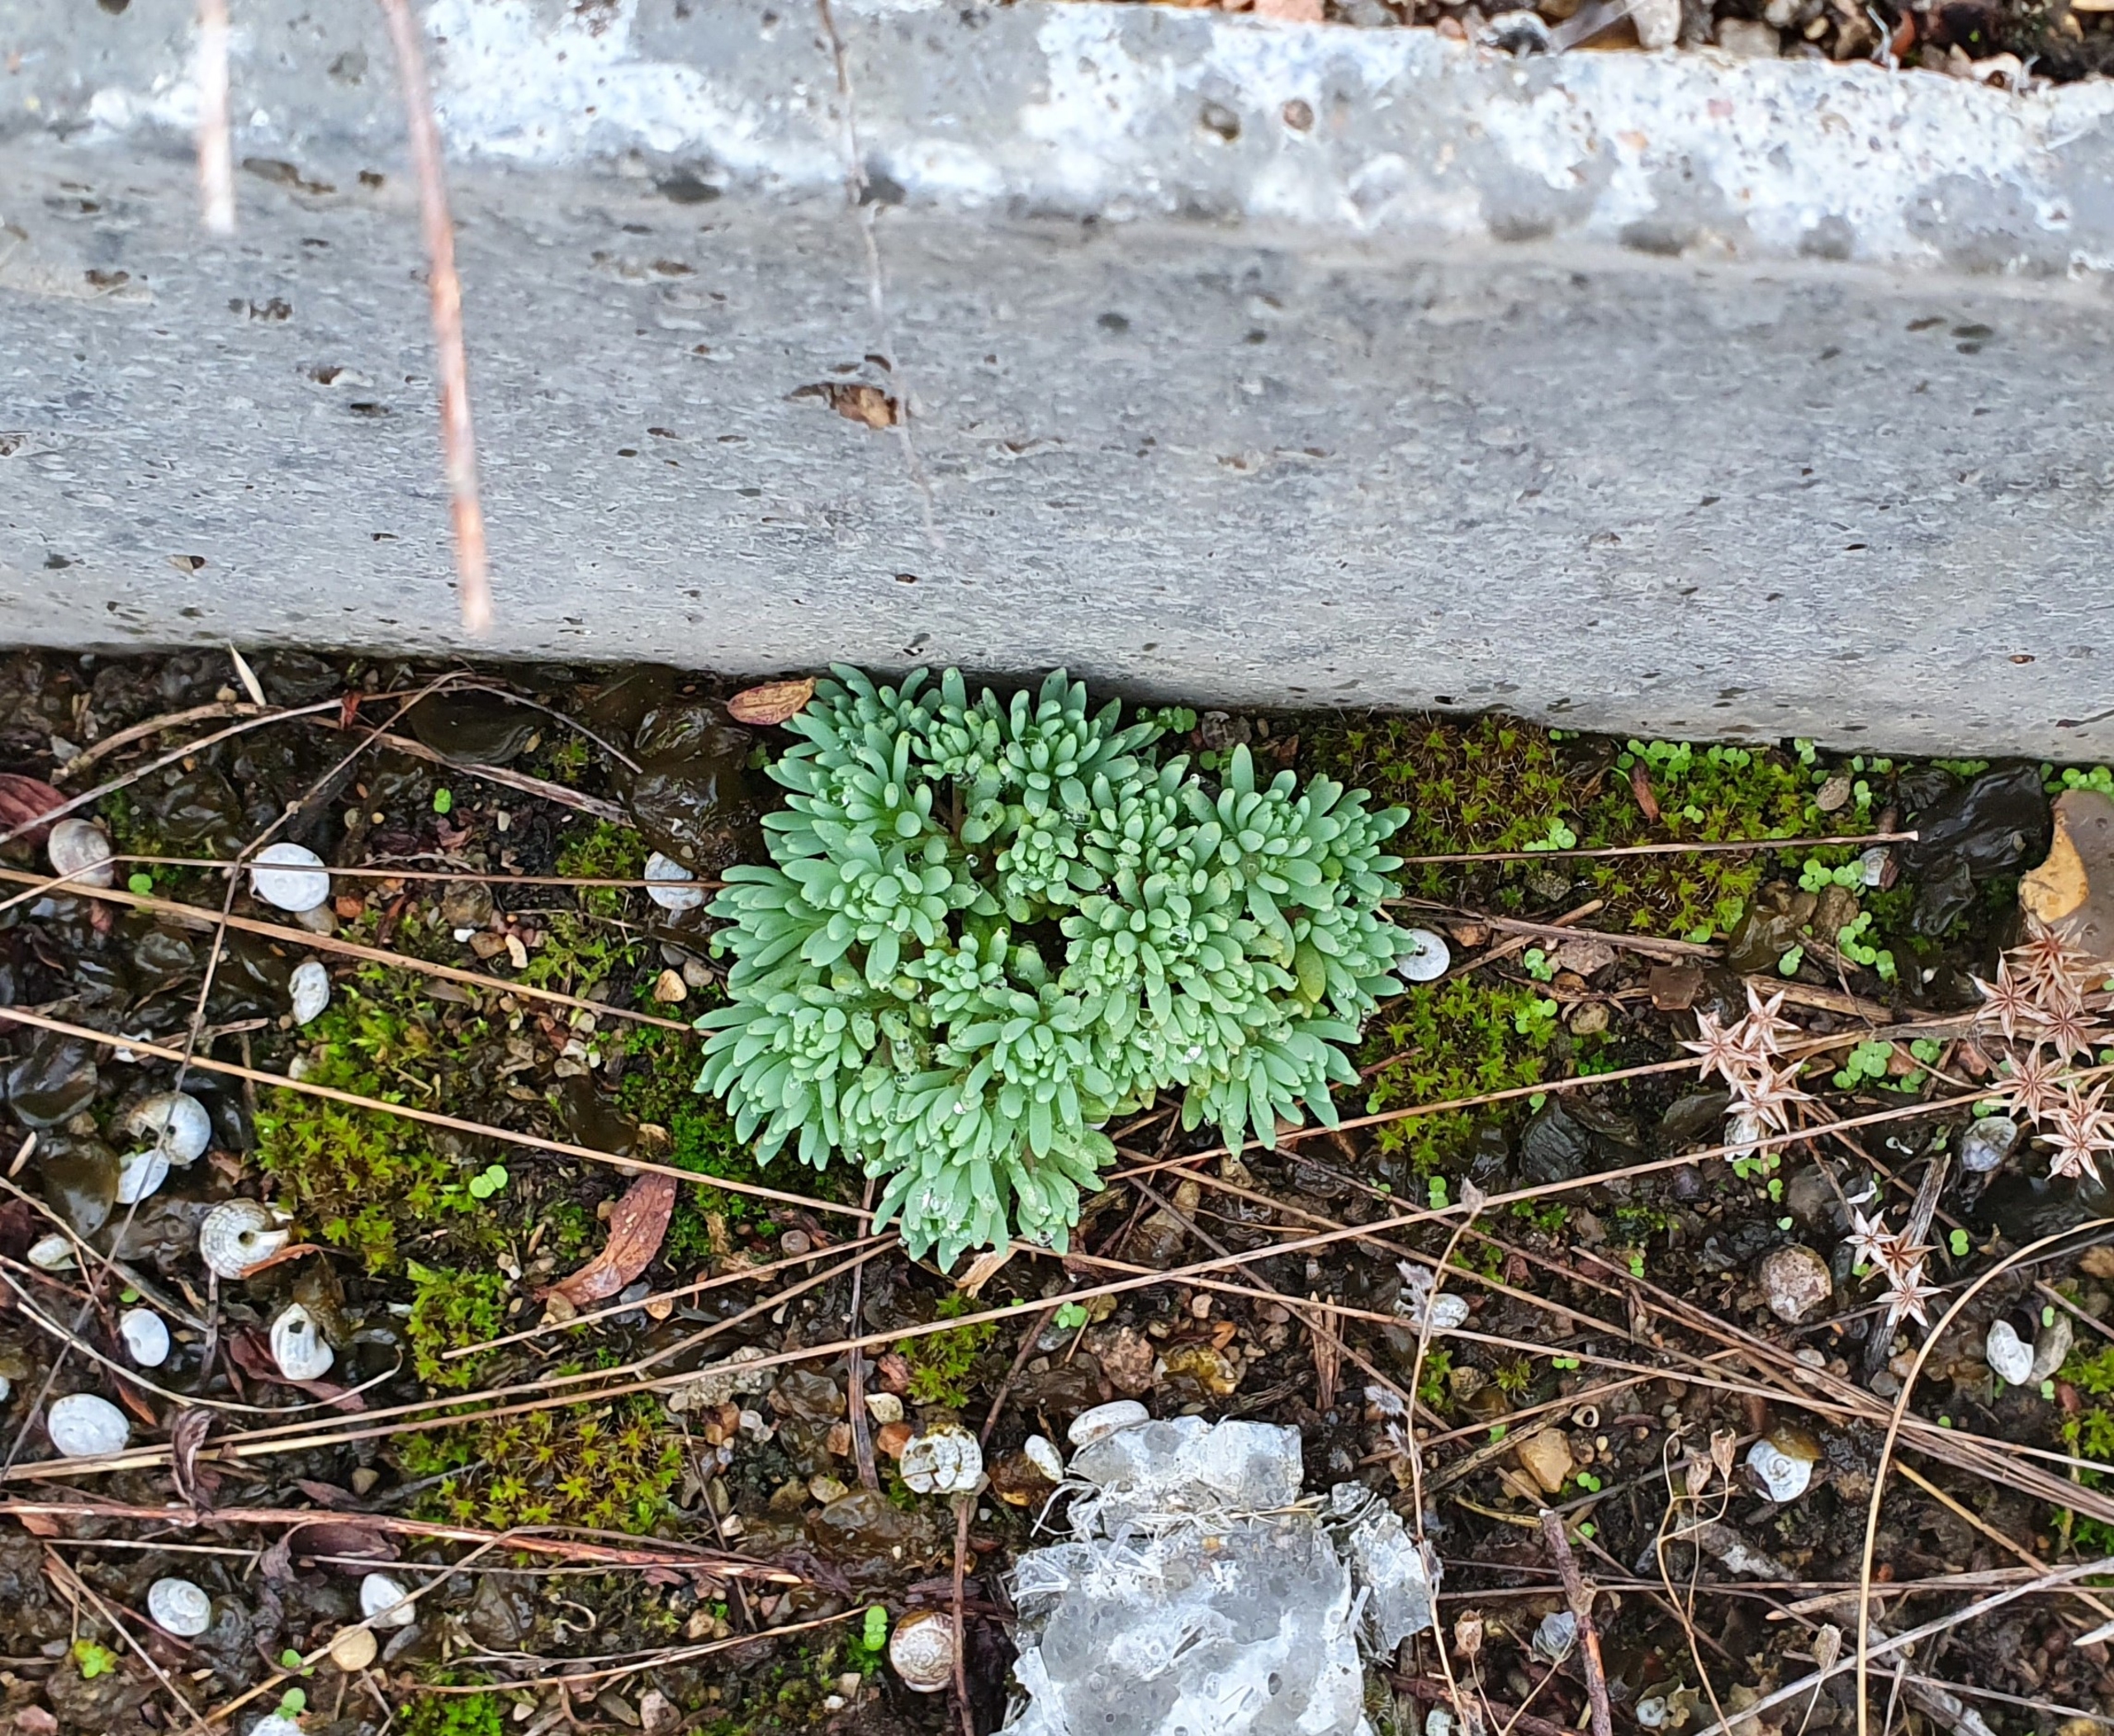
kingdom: Plantae
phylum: Tracheophyta
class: Magnoliopsida
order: Saxifragales
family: Crassulaceae
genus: Sedum
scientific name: Sedum hispanicum
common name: Bleg stenurt
